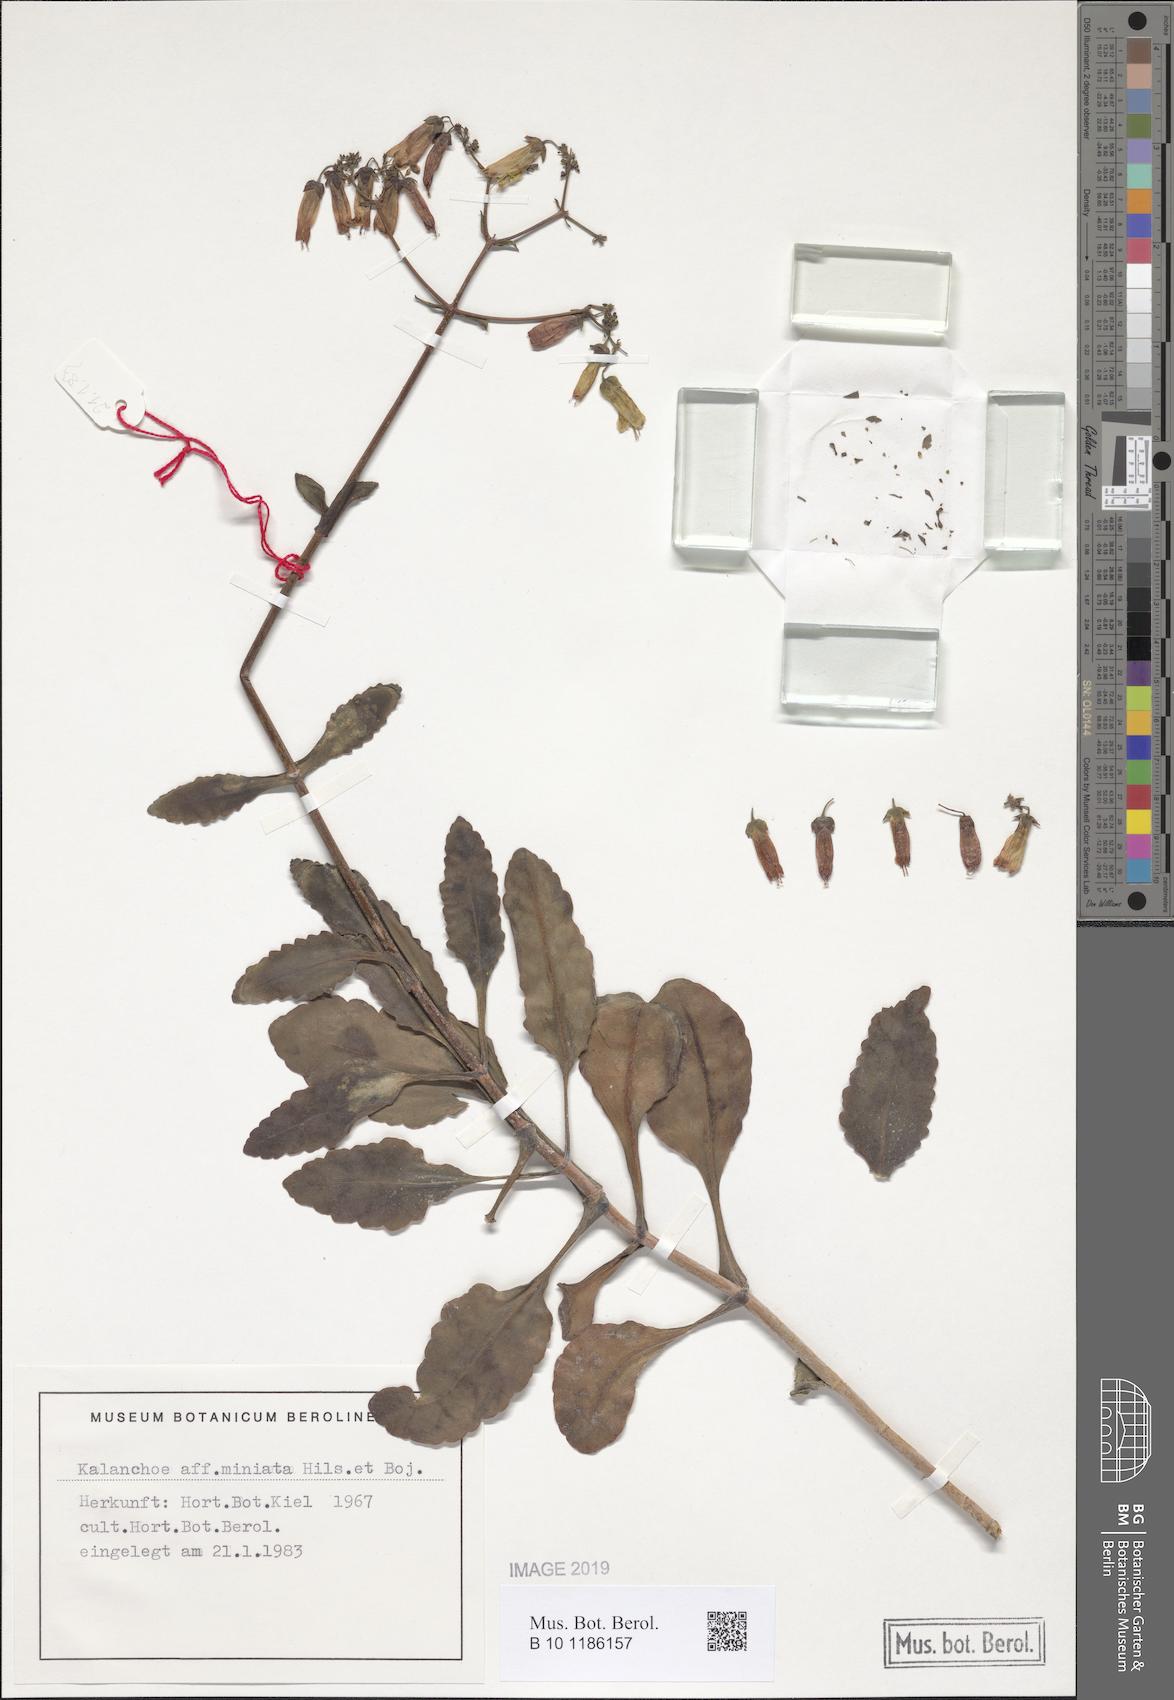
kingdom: Plantae
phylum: Tracheophyta
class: Magnoliopsida
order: Saxifragales
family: Crassulaceae
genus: Kalanchoe
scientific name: Kalanchoe miniata
